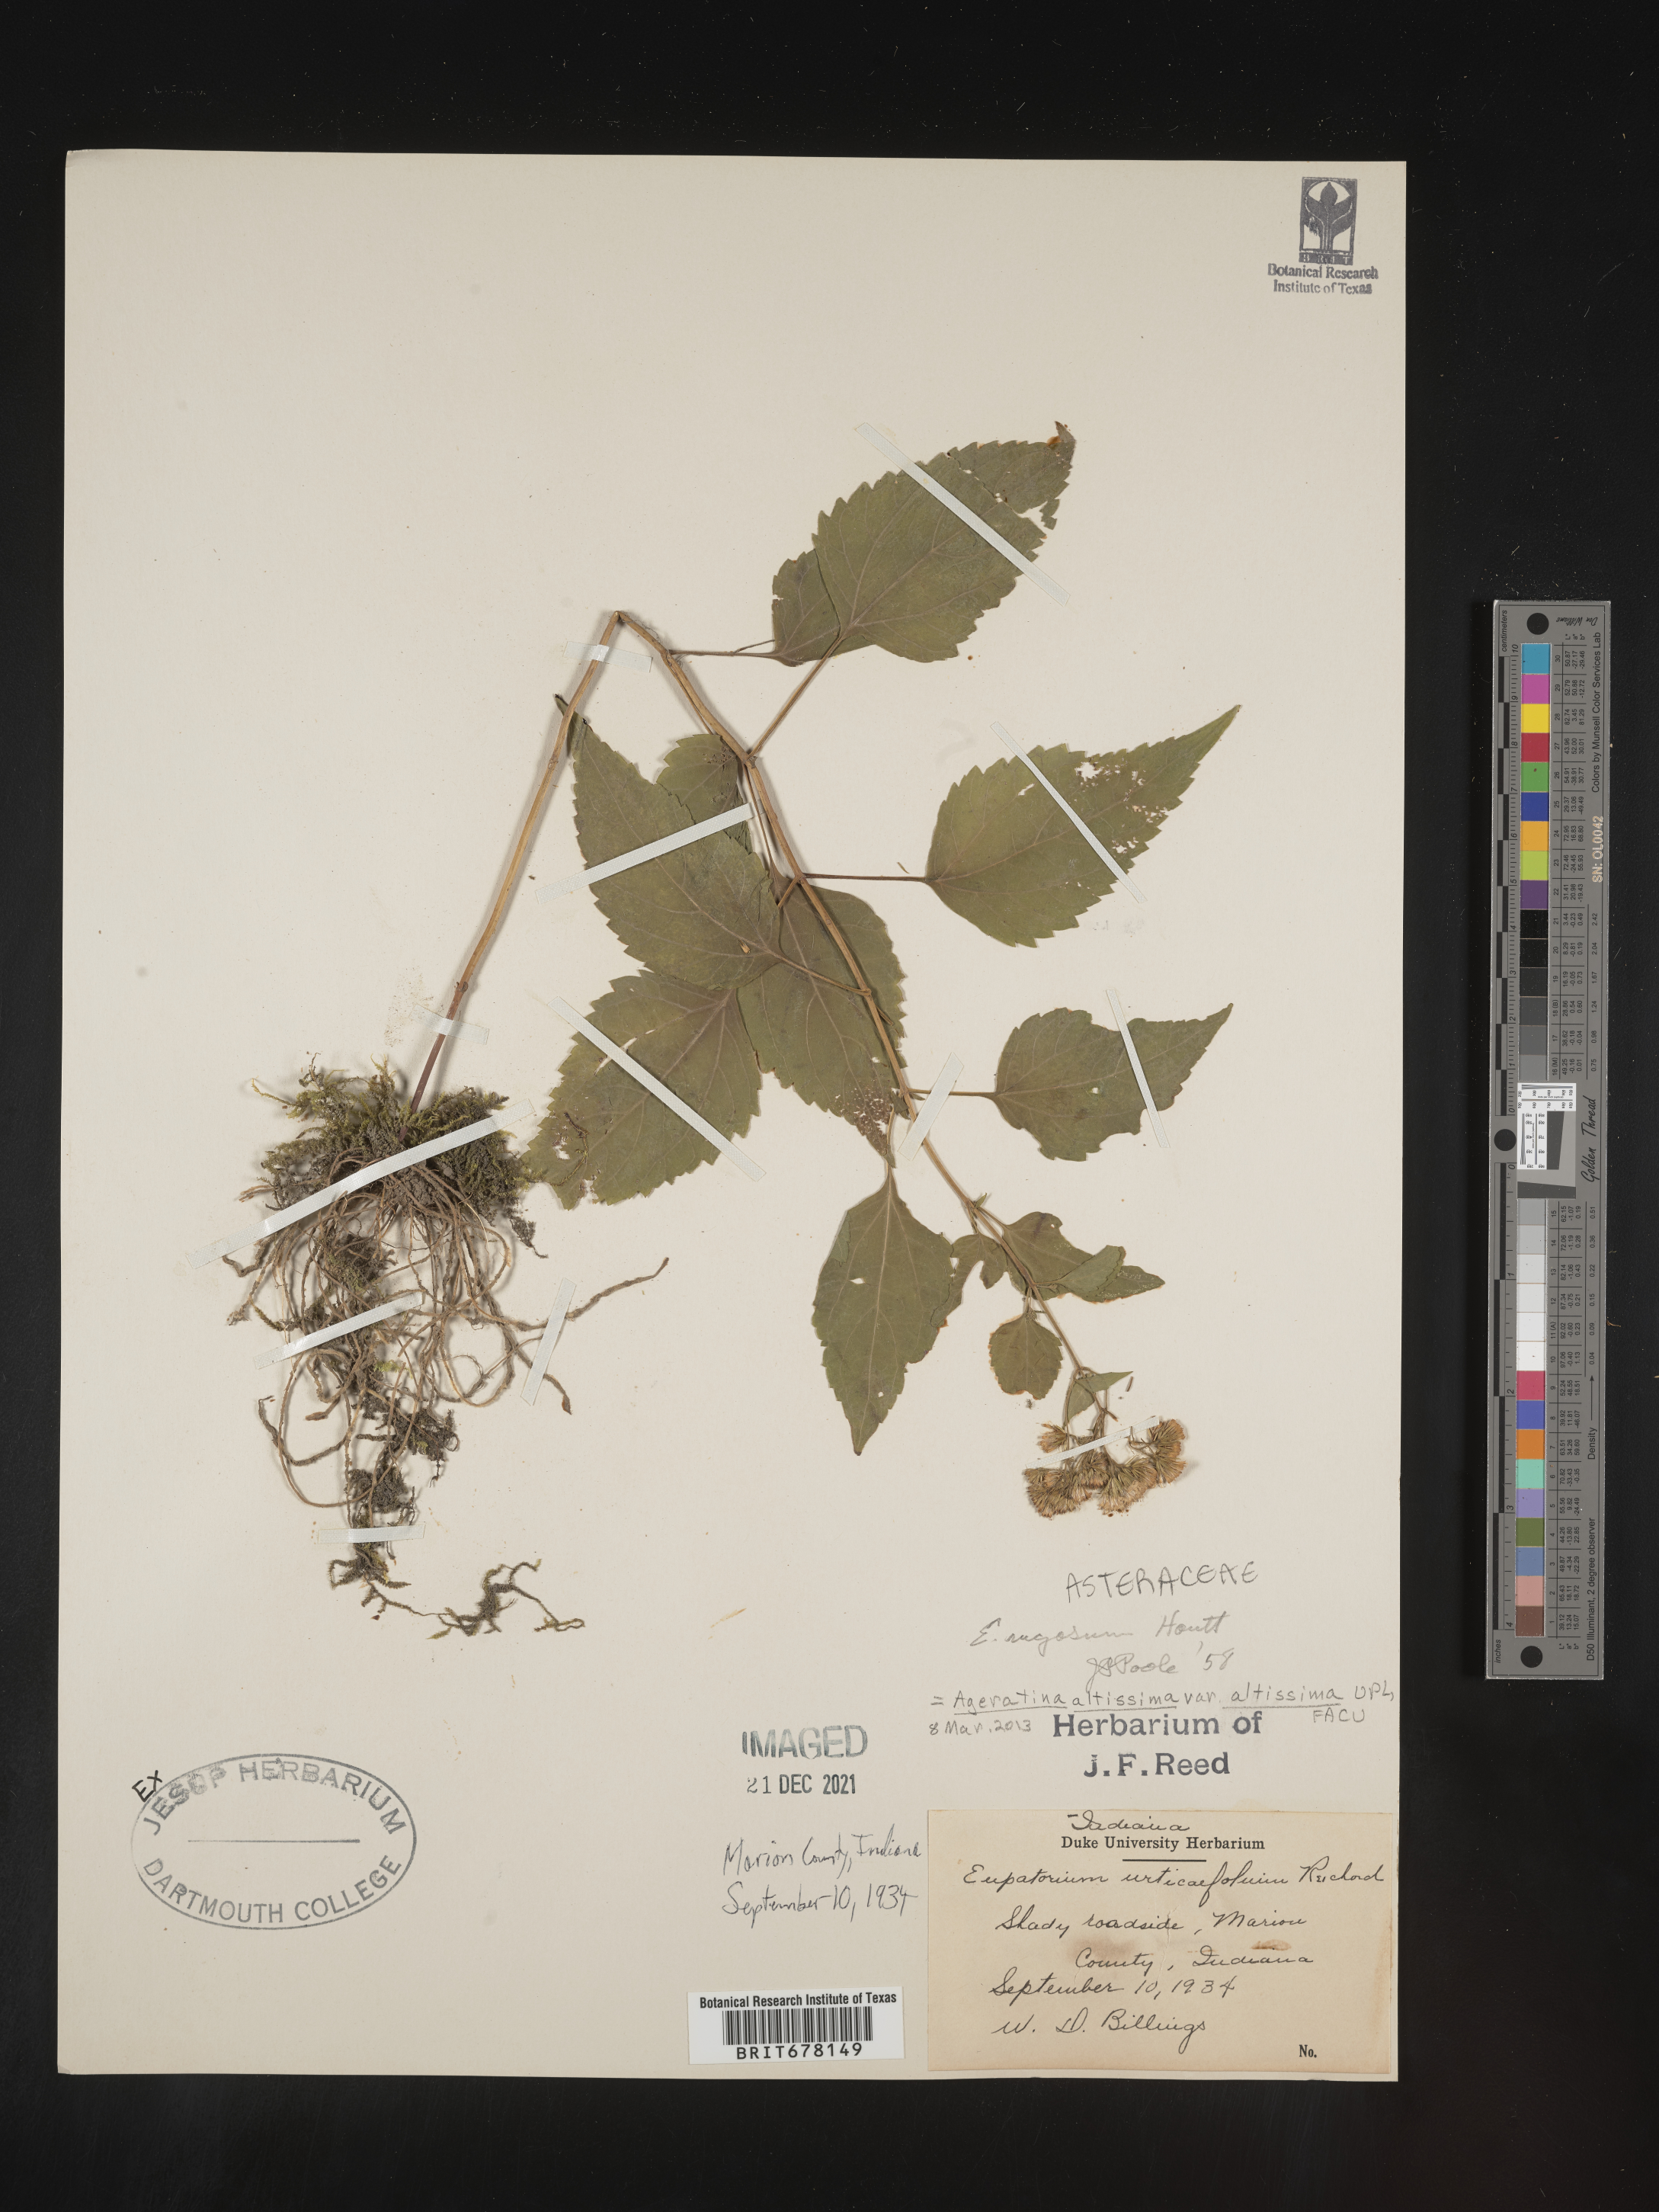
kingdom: Plantae
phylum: Tracheophyta
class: Magnoliopsida
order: Asterales
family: Asteraceae
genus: Cronquistianthus
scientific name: Cronquistianthus bulliferus
